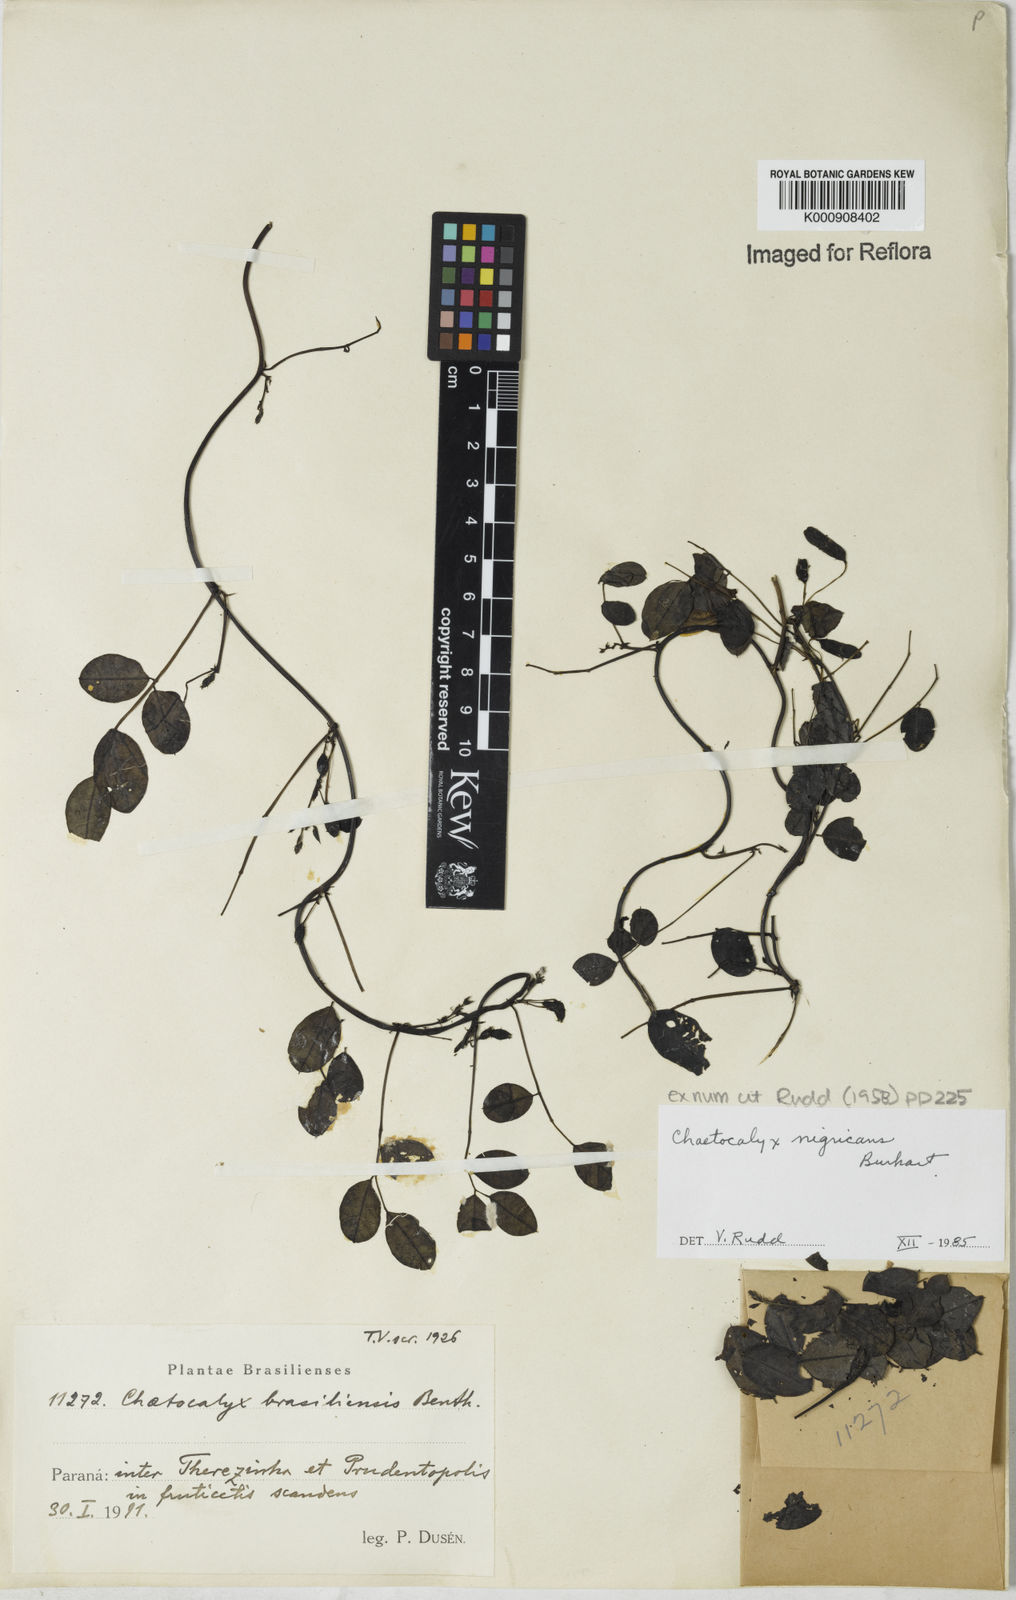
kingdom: Plantae
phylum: Tracheophyta
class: Magnoliopsida
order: Fabales
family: Fabaceae
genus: Nissolia
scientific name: Nissolia nigricans
